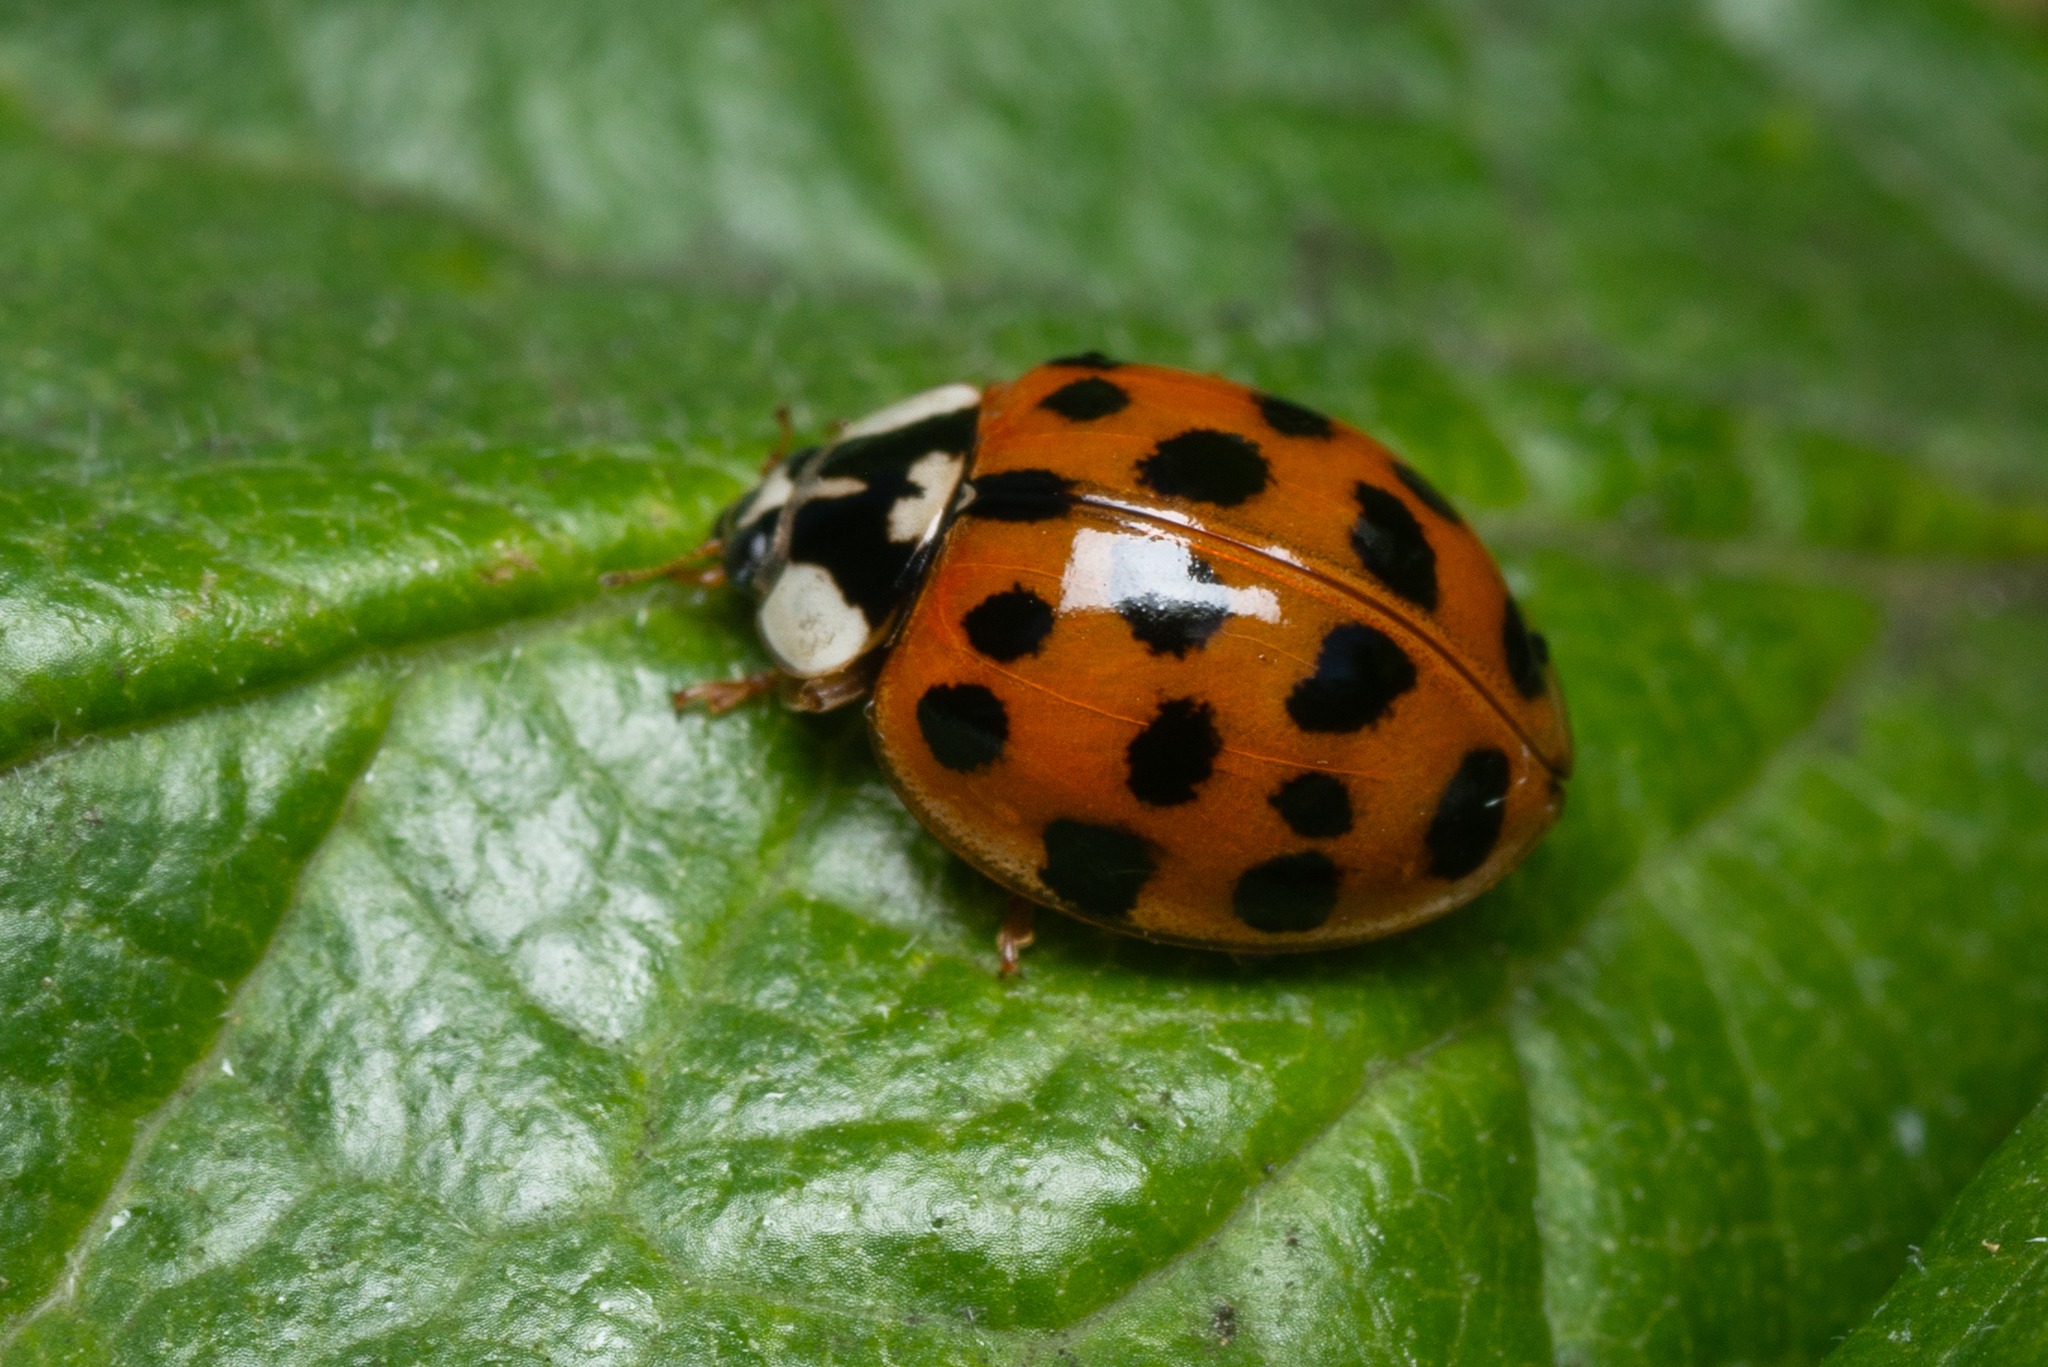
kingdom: Animalia
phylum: Arthropoda
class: Insecta
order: Coleoptera
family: Coccinellidae
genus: Harmonia
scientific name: Harmonia axyridis
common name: Harlekinmariehøne
